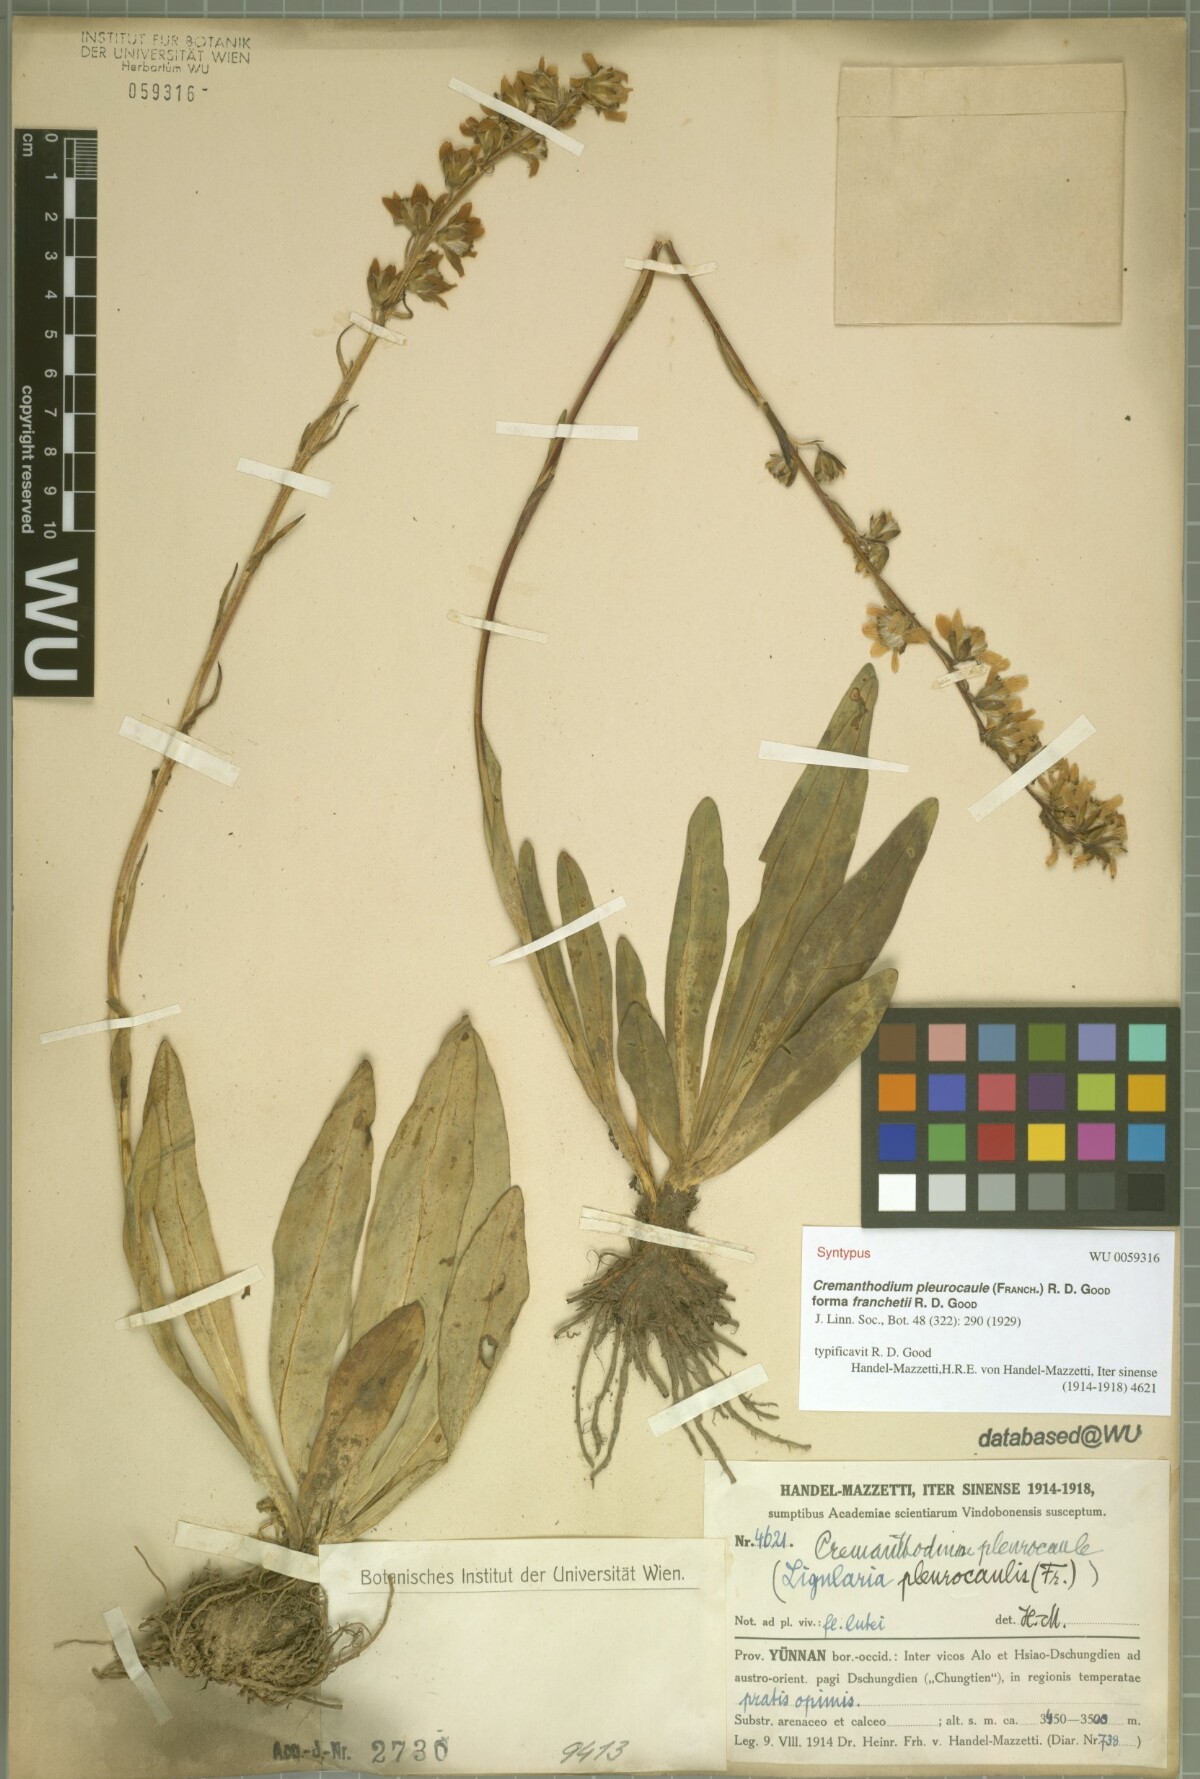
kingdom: Plantae
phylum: Tracheophyta
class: Magnoliopsida
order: Asterales
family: Asteraceae
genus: Ligularia
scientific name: Ligularia pleurocaulis
